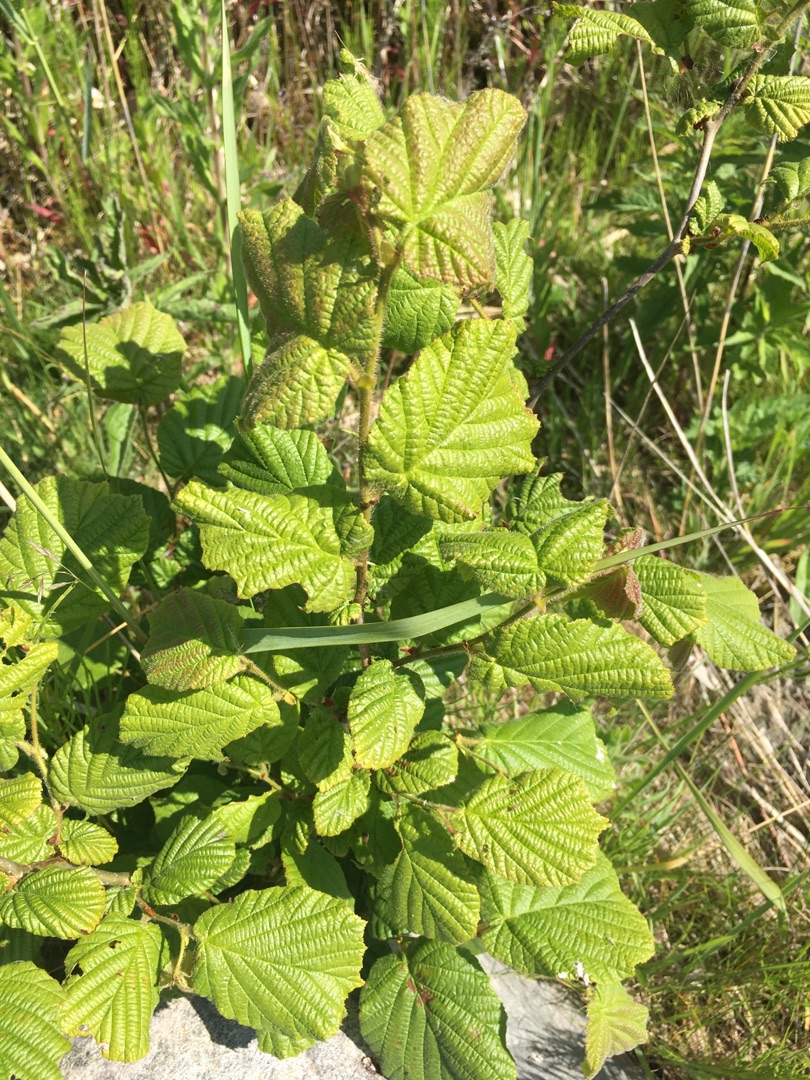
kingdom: Plantae
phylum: Tracheophyta
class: Magnoliopsida
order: Fagales
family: Betulaceae
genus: Corylus
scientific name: Corylus avellana
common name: Hassel
